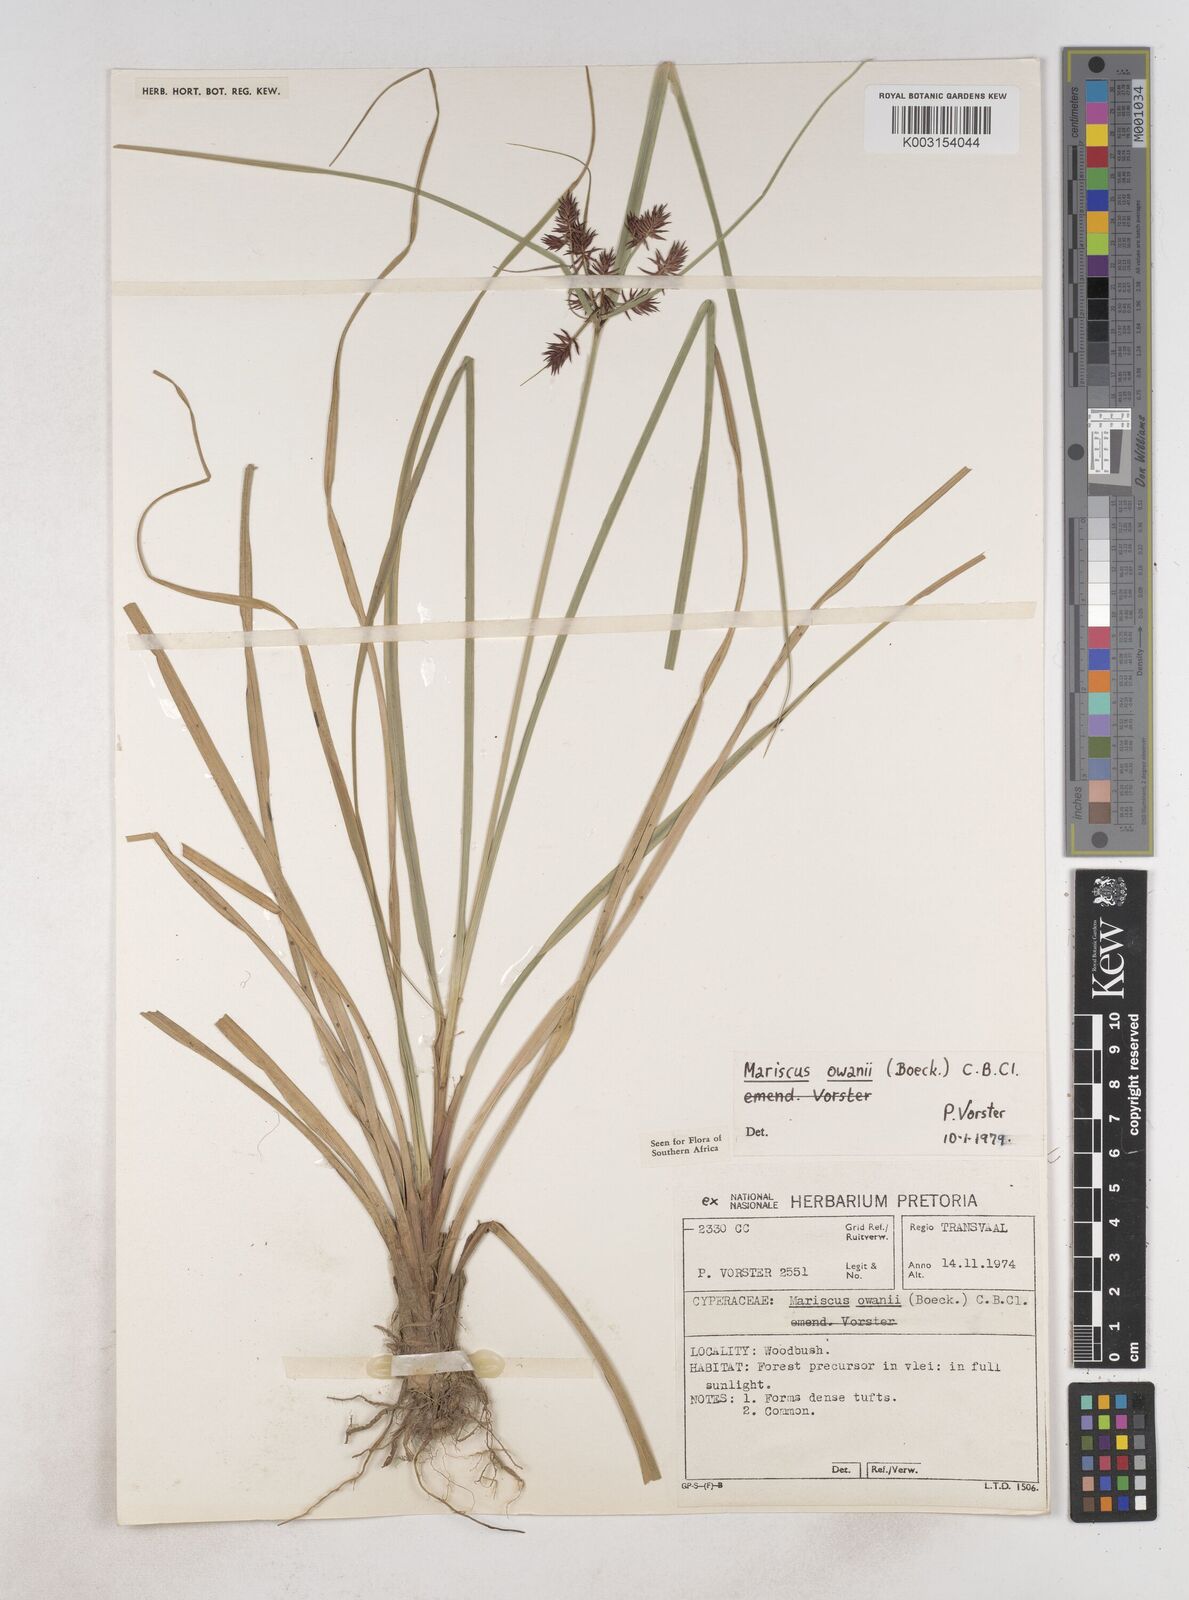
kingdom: Plantae
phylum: Tracheophyta
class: Liliopsida
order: Poales
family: Cyperaceae
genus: Cyperus
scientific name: Cyperus owanii
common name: Owan's flatsedge
